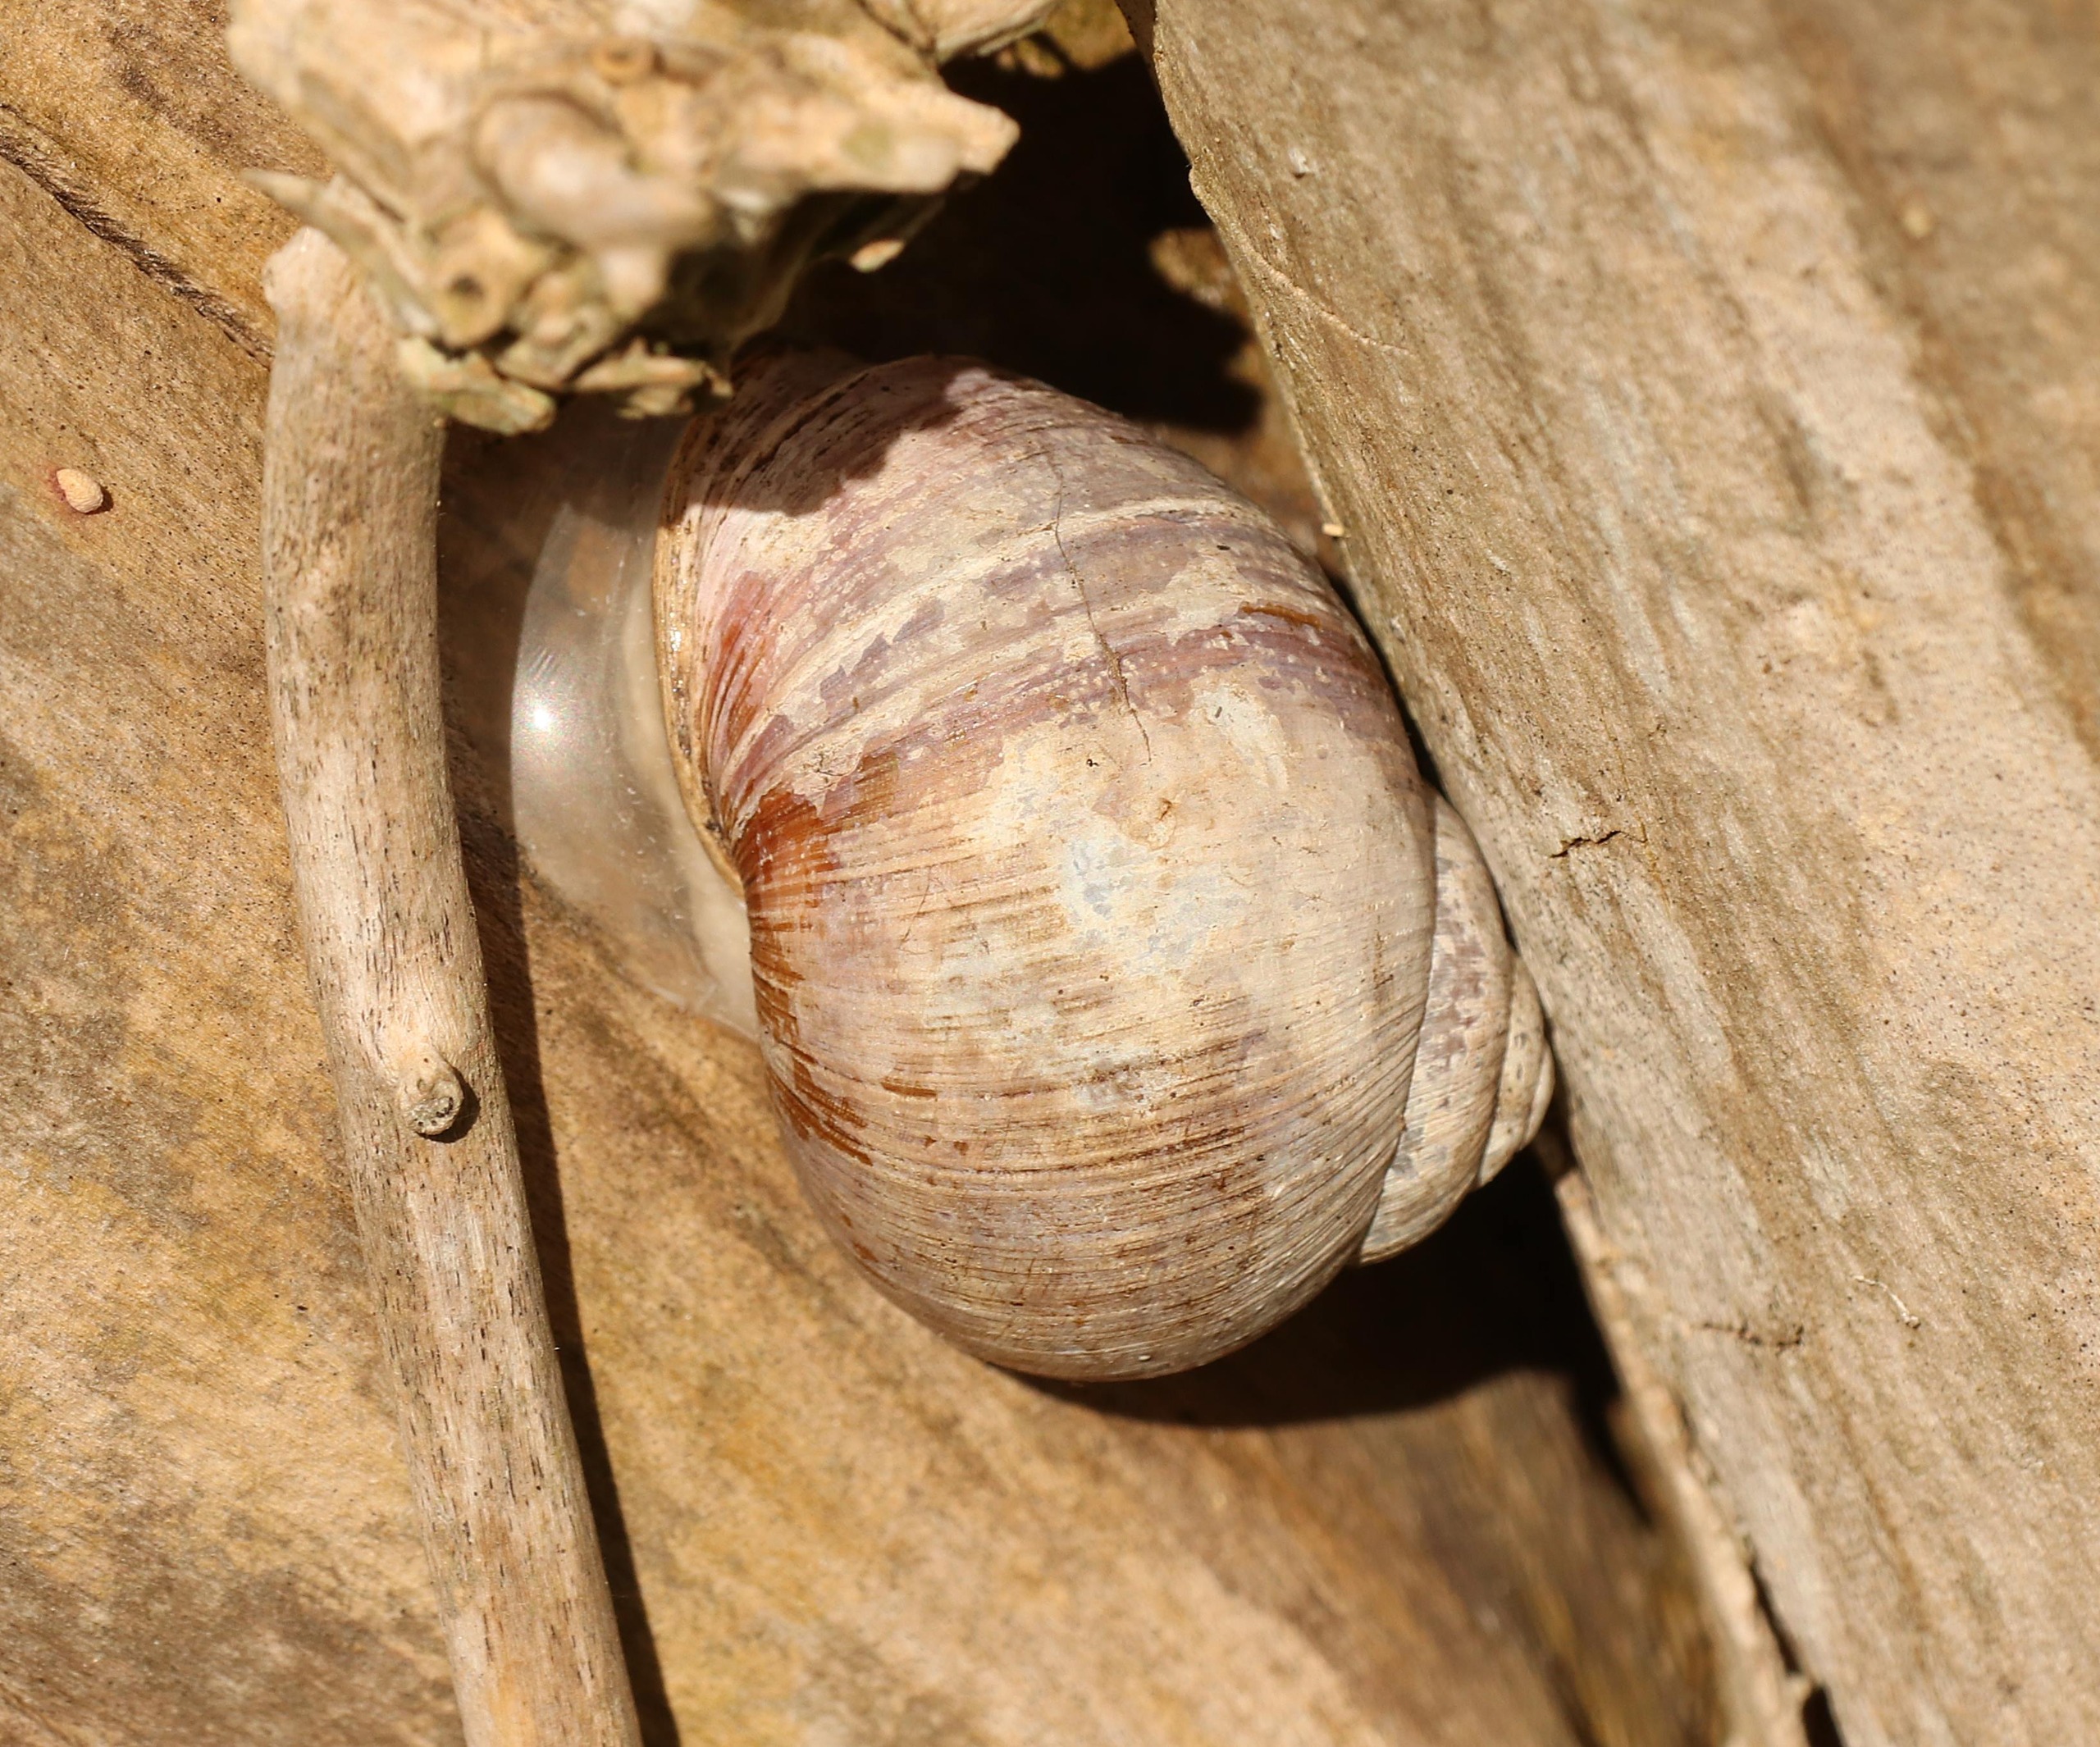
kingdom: Animalia
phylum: Mollusca
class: Gastropoda
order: Stylommatophora
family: Helicidae
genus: Helix
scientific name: Helix pomatia
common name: Vinbjergsnegl
